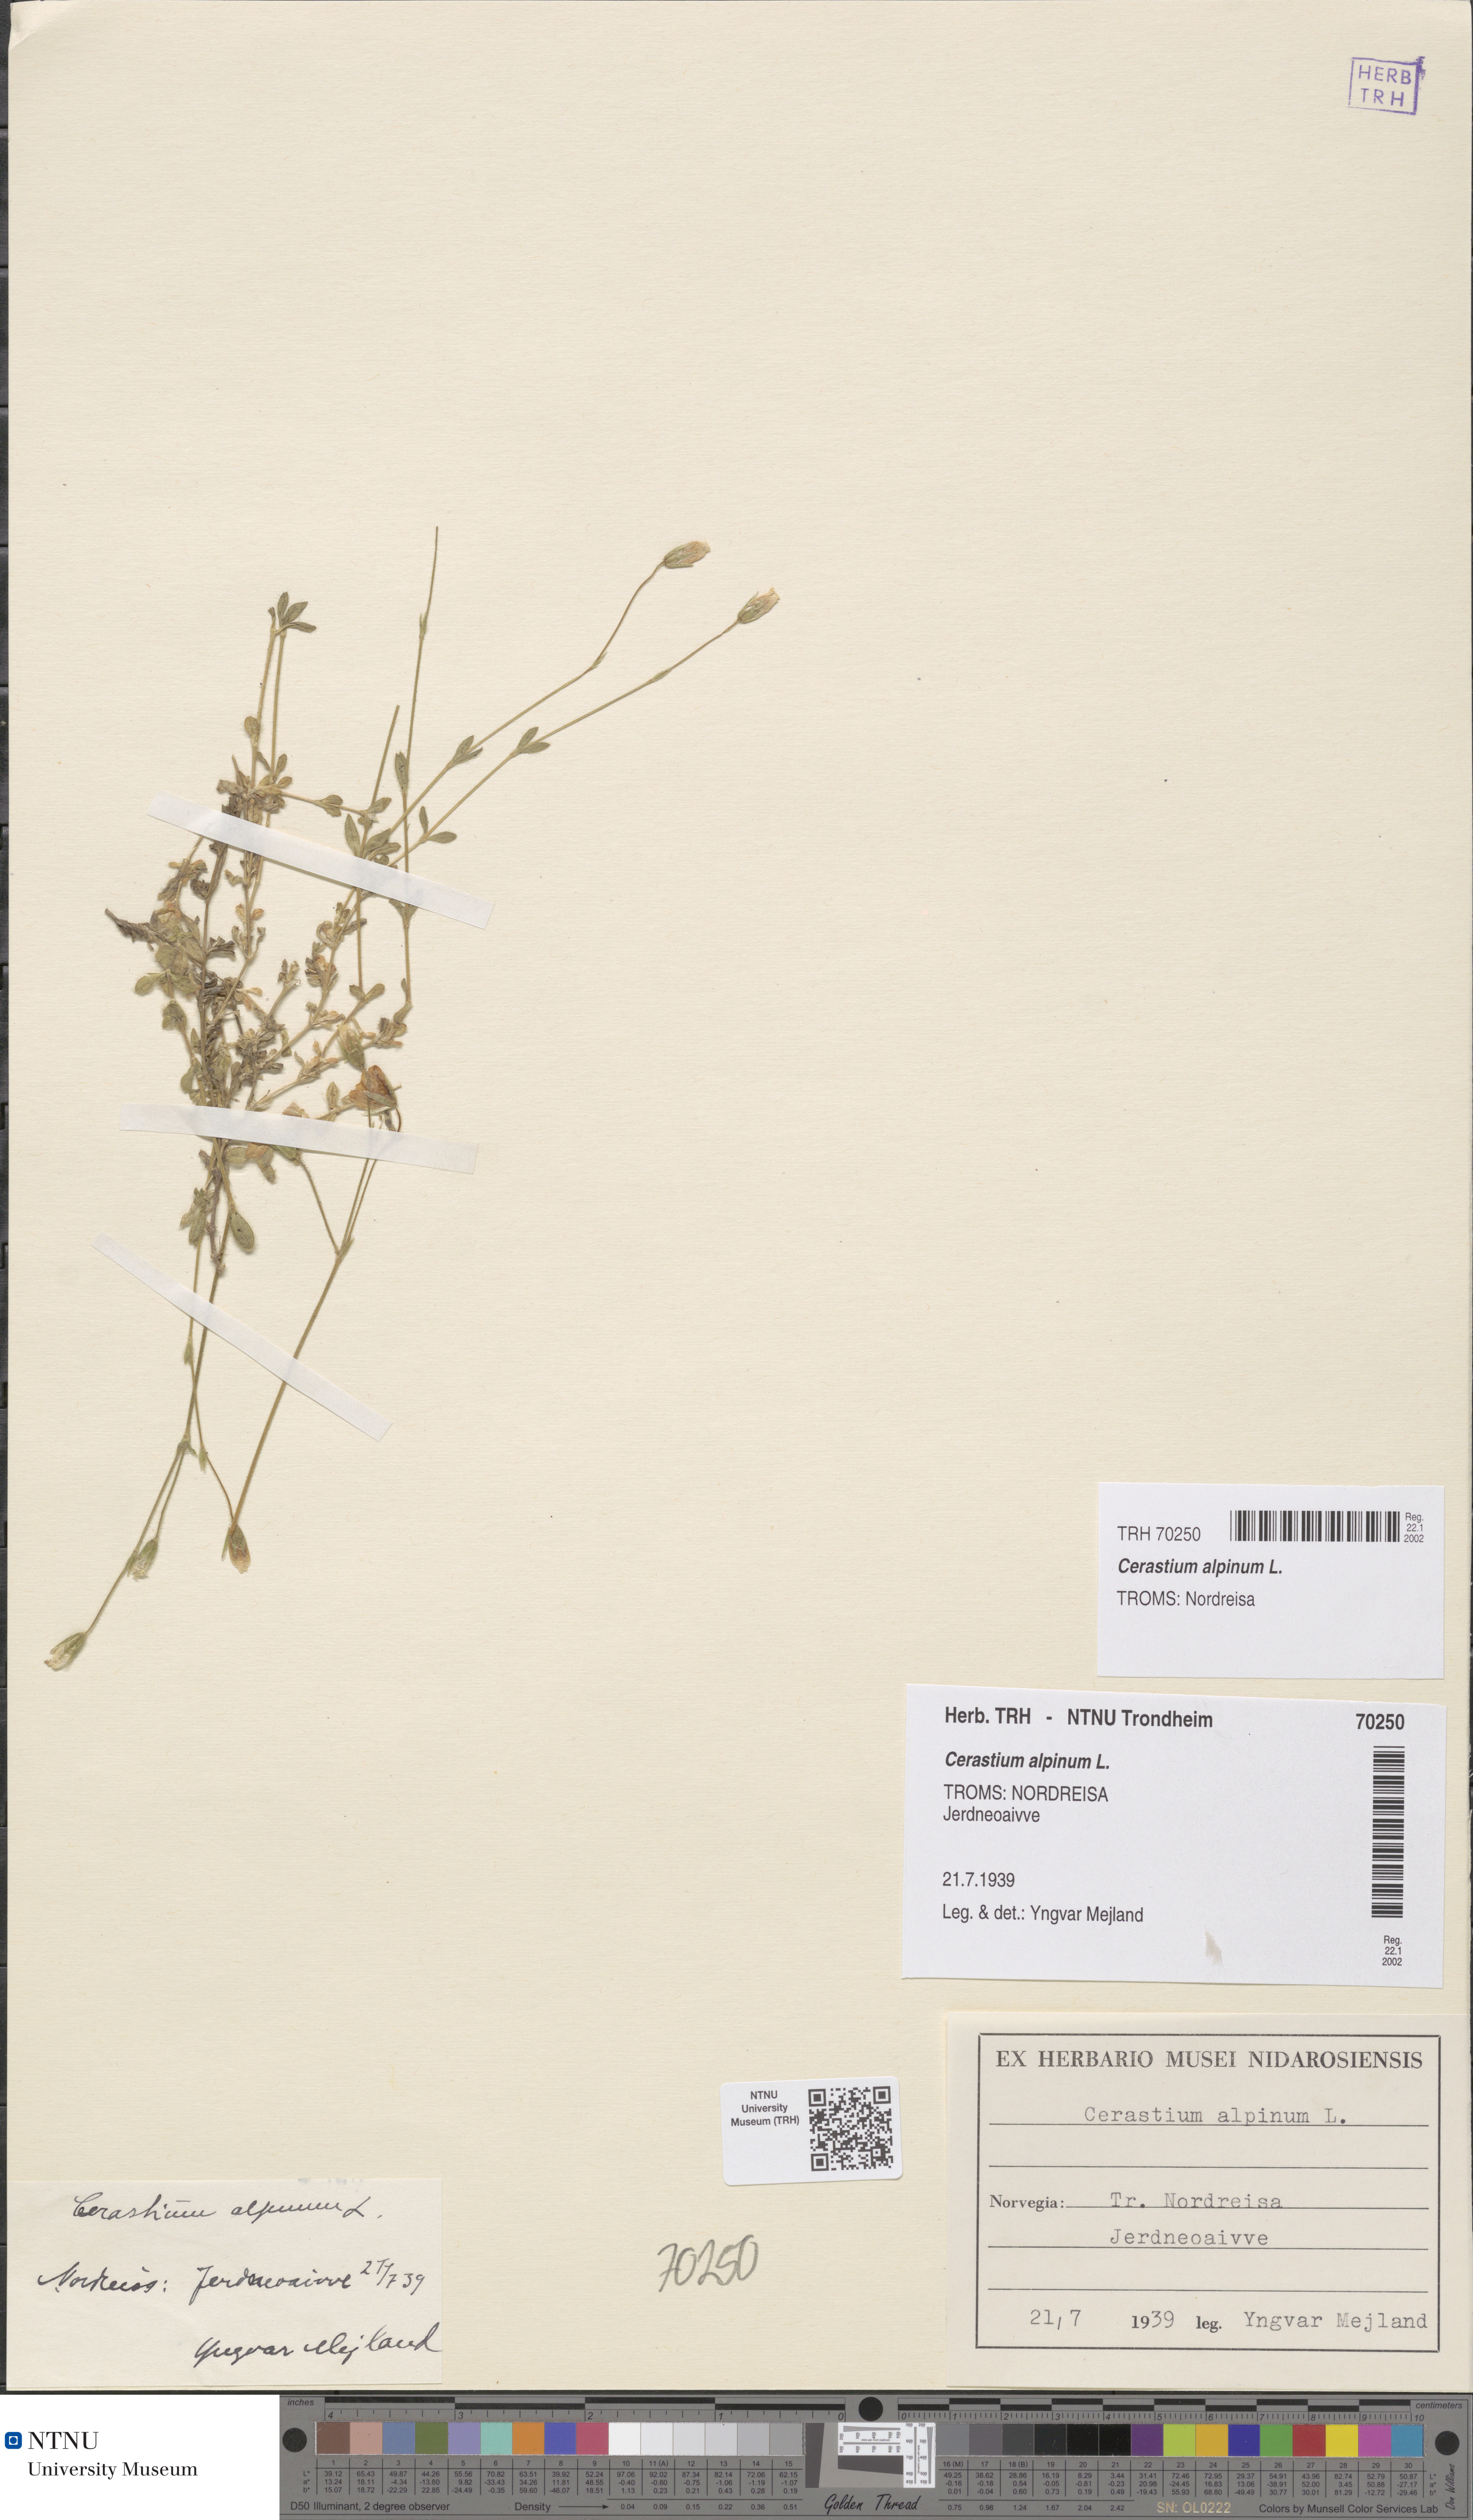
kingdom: Plantae
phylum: Tracheophyta
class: Magnoliopsida
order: Caryophyllales
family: Caryophyllaceae
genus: Cerastium
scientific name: Cerastium alpinum
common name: Alpine mouse-ear
